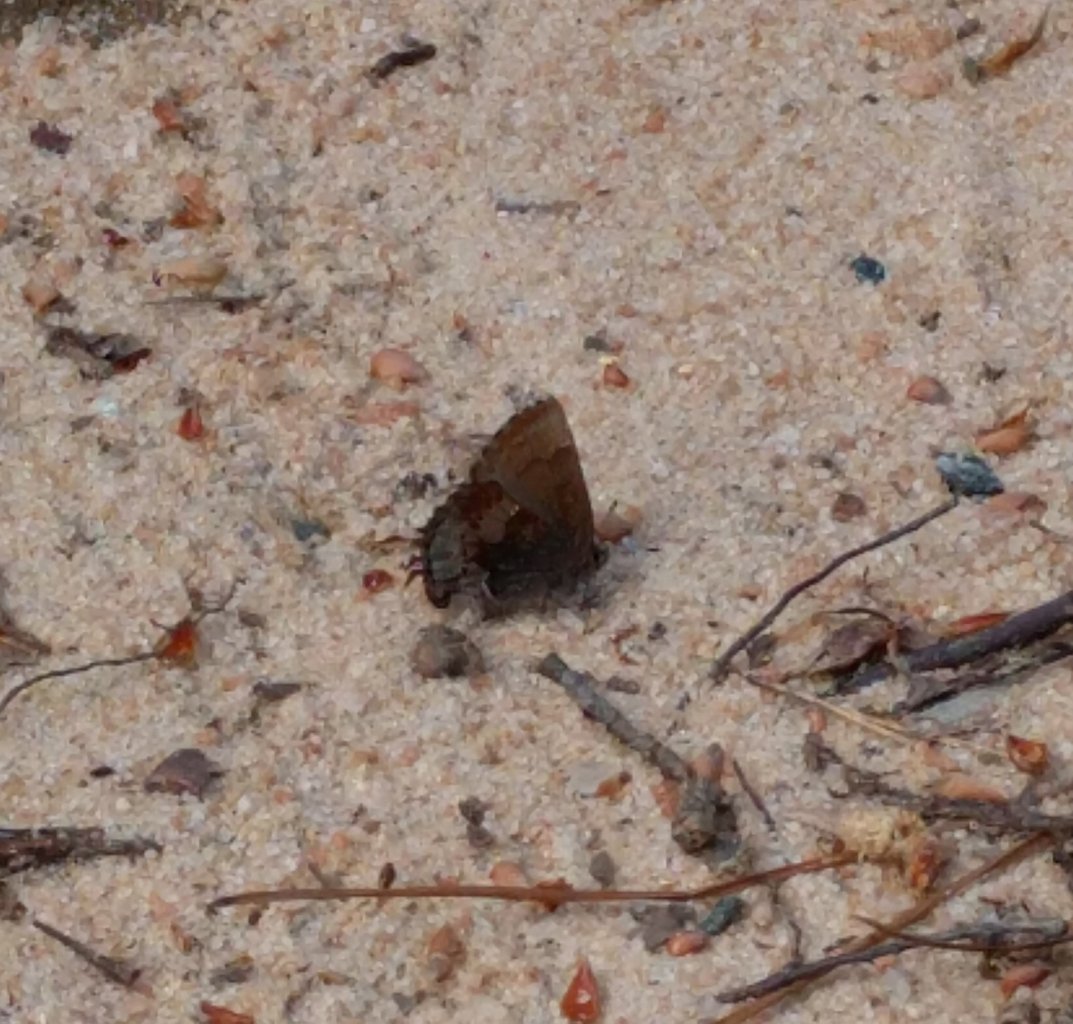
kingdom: Animalia
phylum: Arthropoda
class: Insecta
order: Lepidoptera
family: Lycaenidae
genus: Incisalia
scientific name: Incisalia henrici
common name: Henry's Elfin
